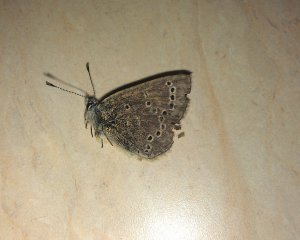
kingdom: Animalia
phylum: Arthropoda
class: Insecta
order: Lepidoptera
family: Lycaenidae
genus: Glaucopsyche
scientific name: Glaucopsyche lygdamus
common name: Silvery Blue
